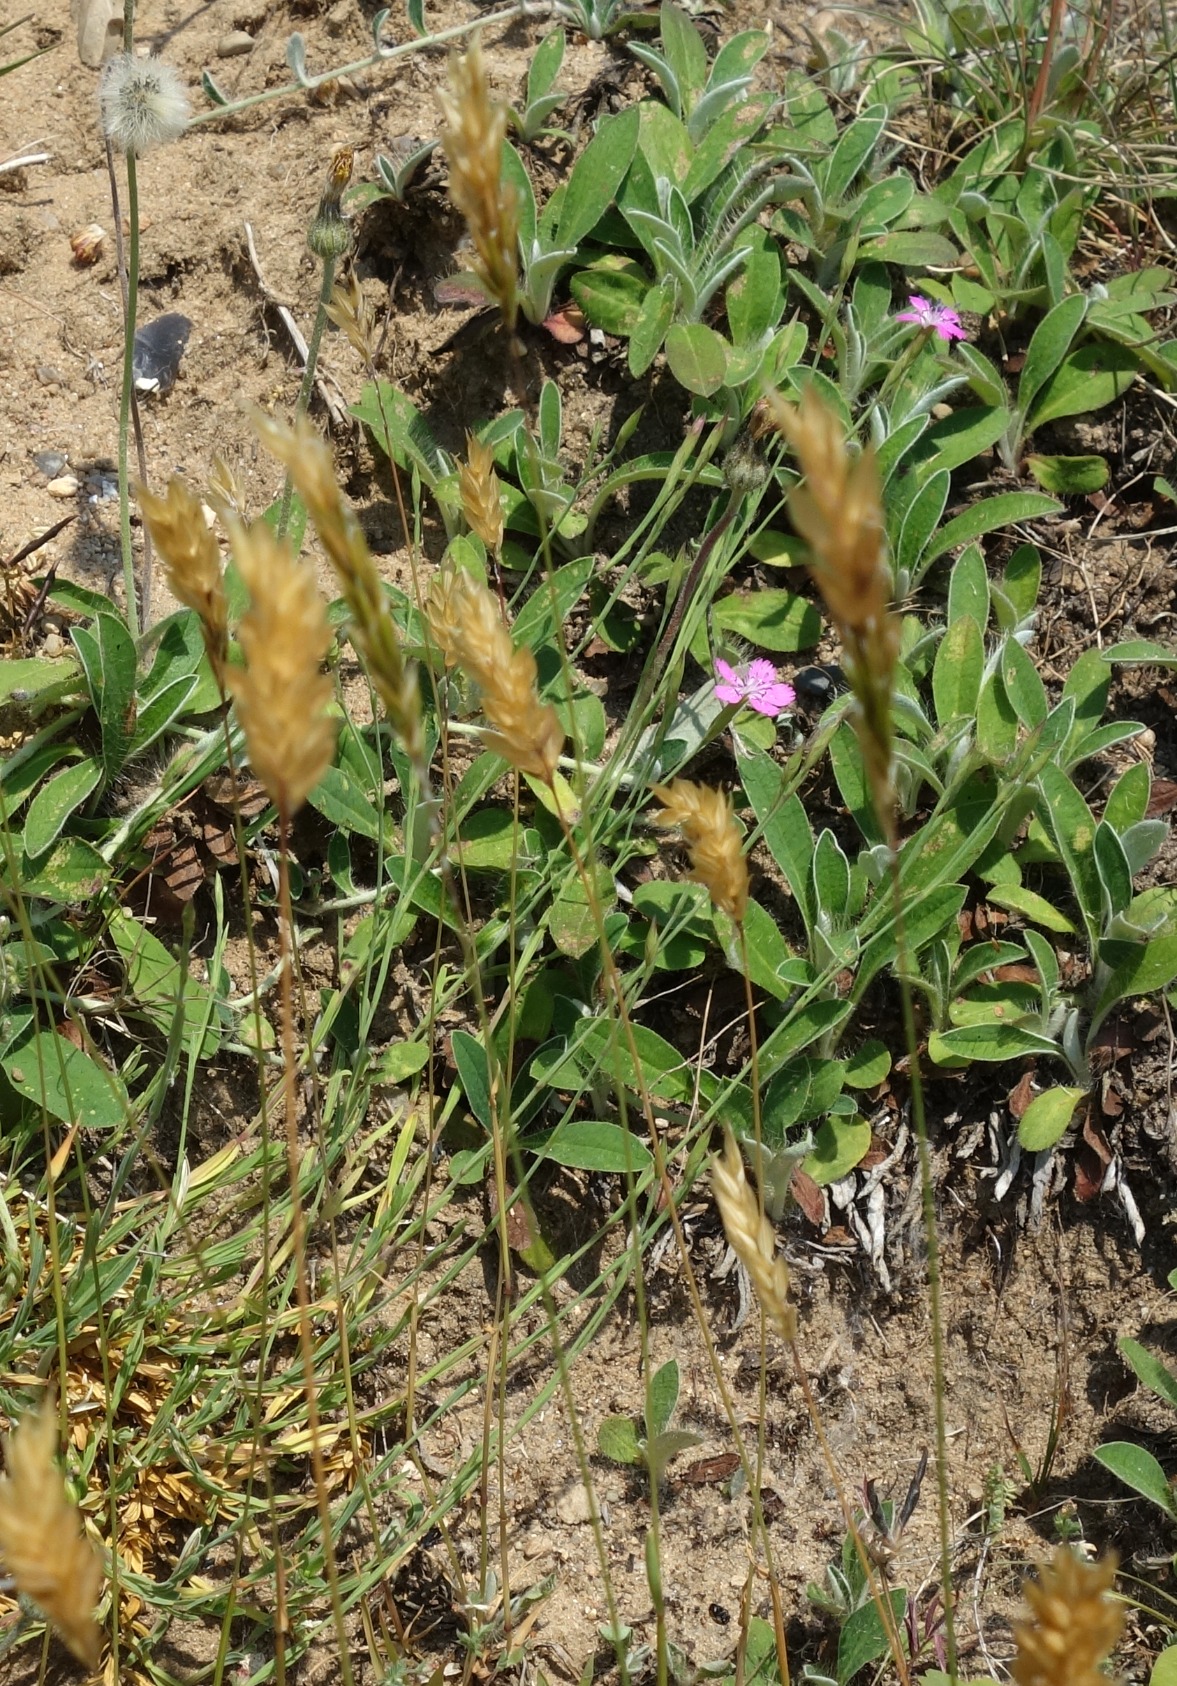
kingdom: Plantae
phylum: Tracheophyta
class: Liliopsida
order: Poales
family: Poaceae
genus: Anthoxanthum
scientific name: Anthoxanthum odoratum
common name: Vellugtende gulaks
